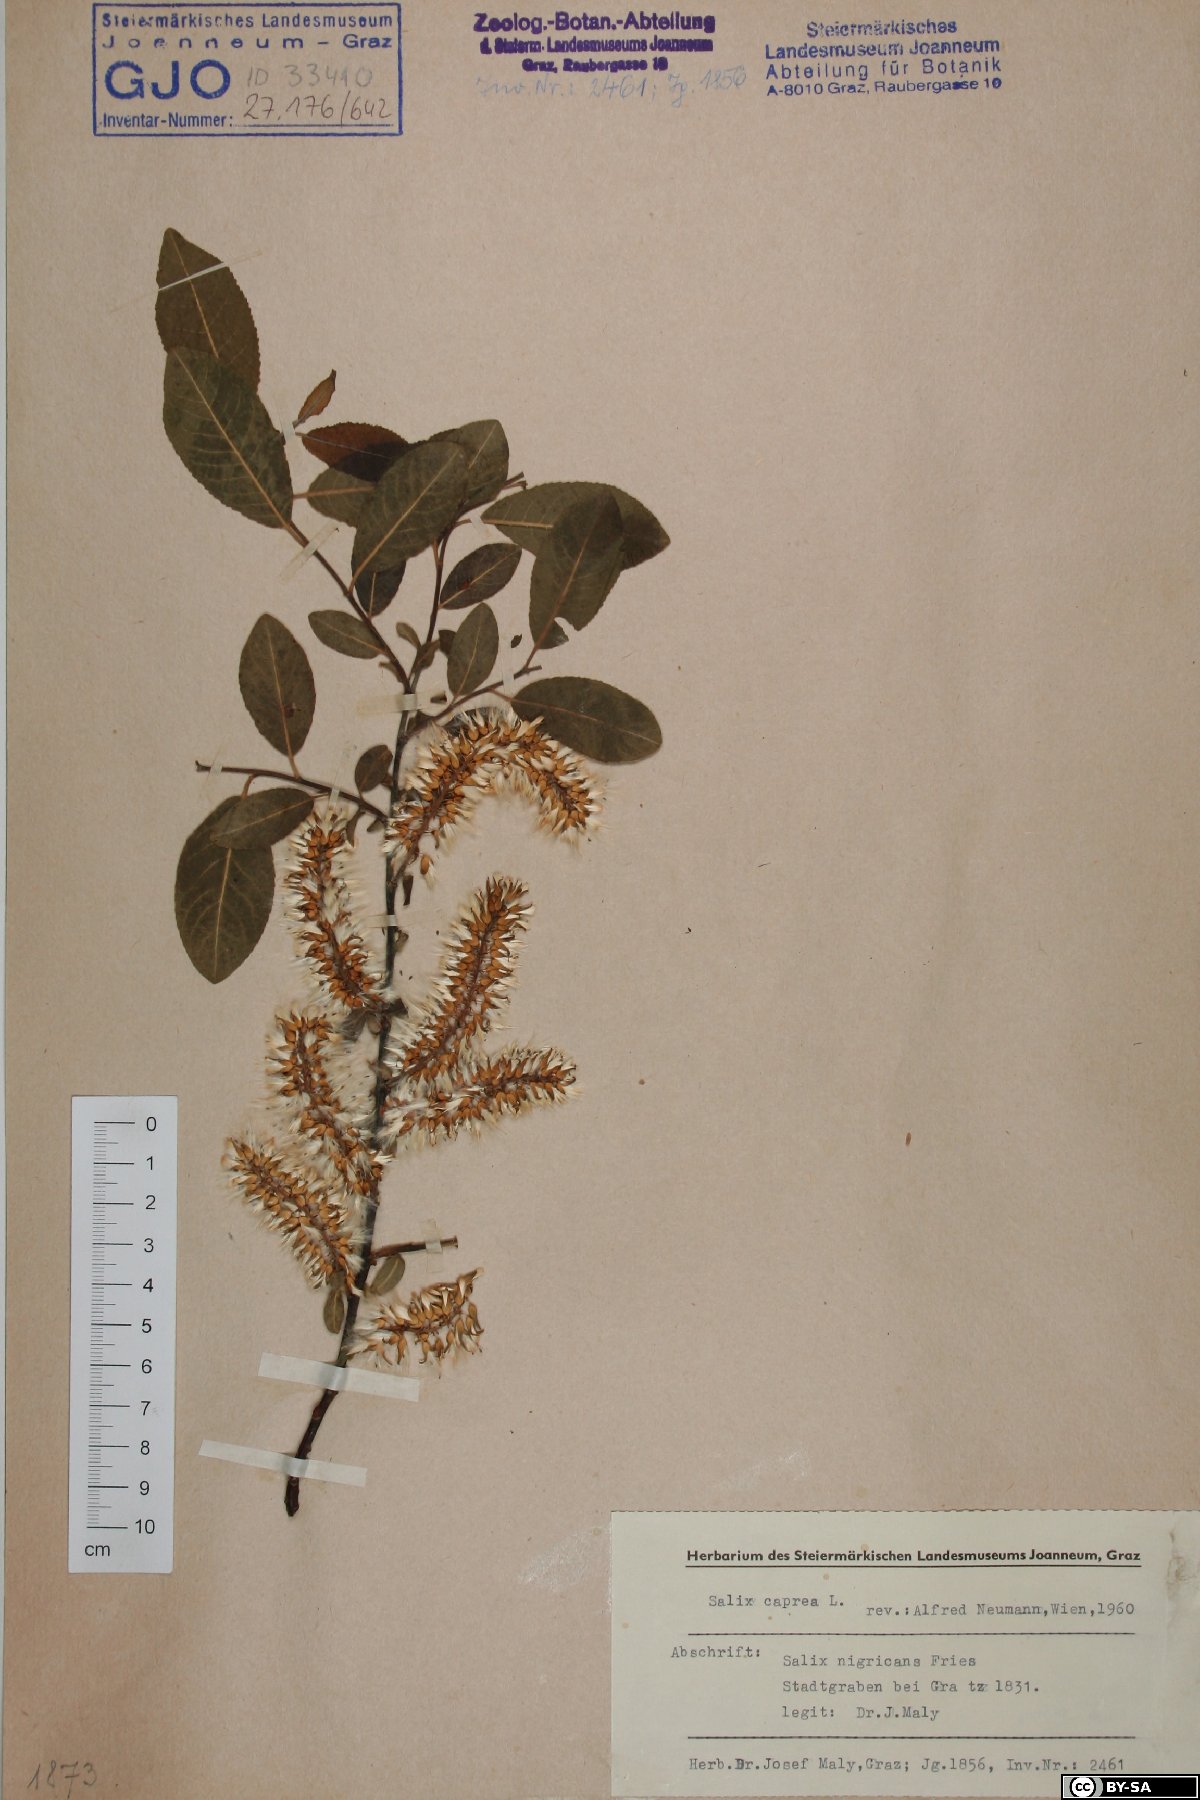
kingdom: Plantae
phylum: Tracheophyta
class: Magnoliopsida
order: Malpighiales
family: Salicaceae
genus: Salix
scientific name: Salix caprea
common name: Goat willow
